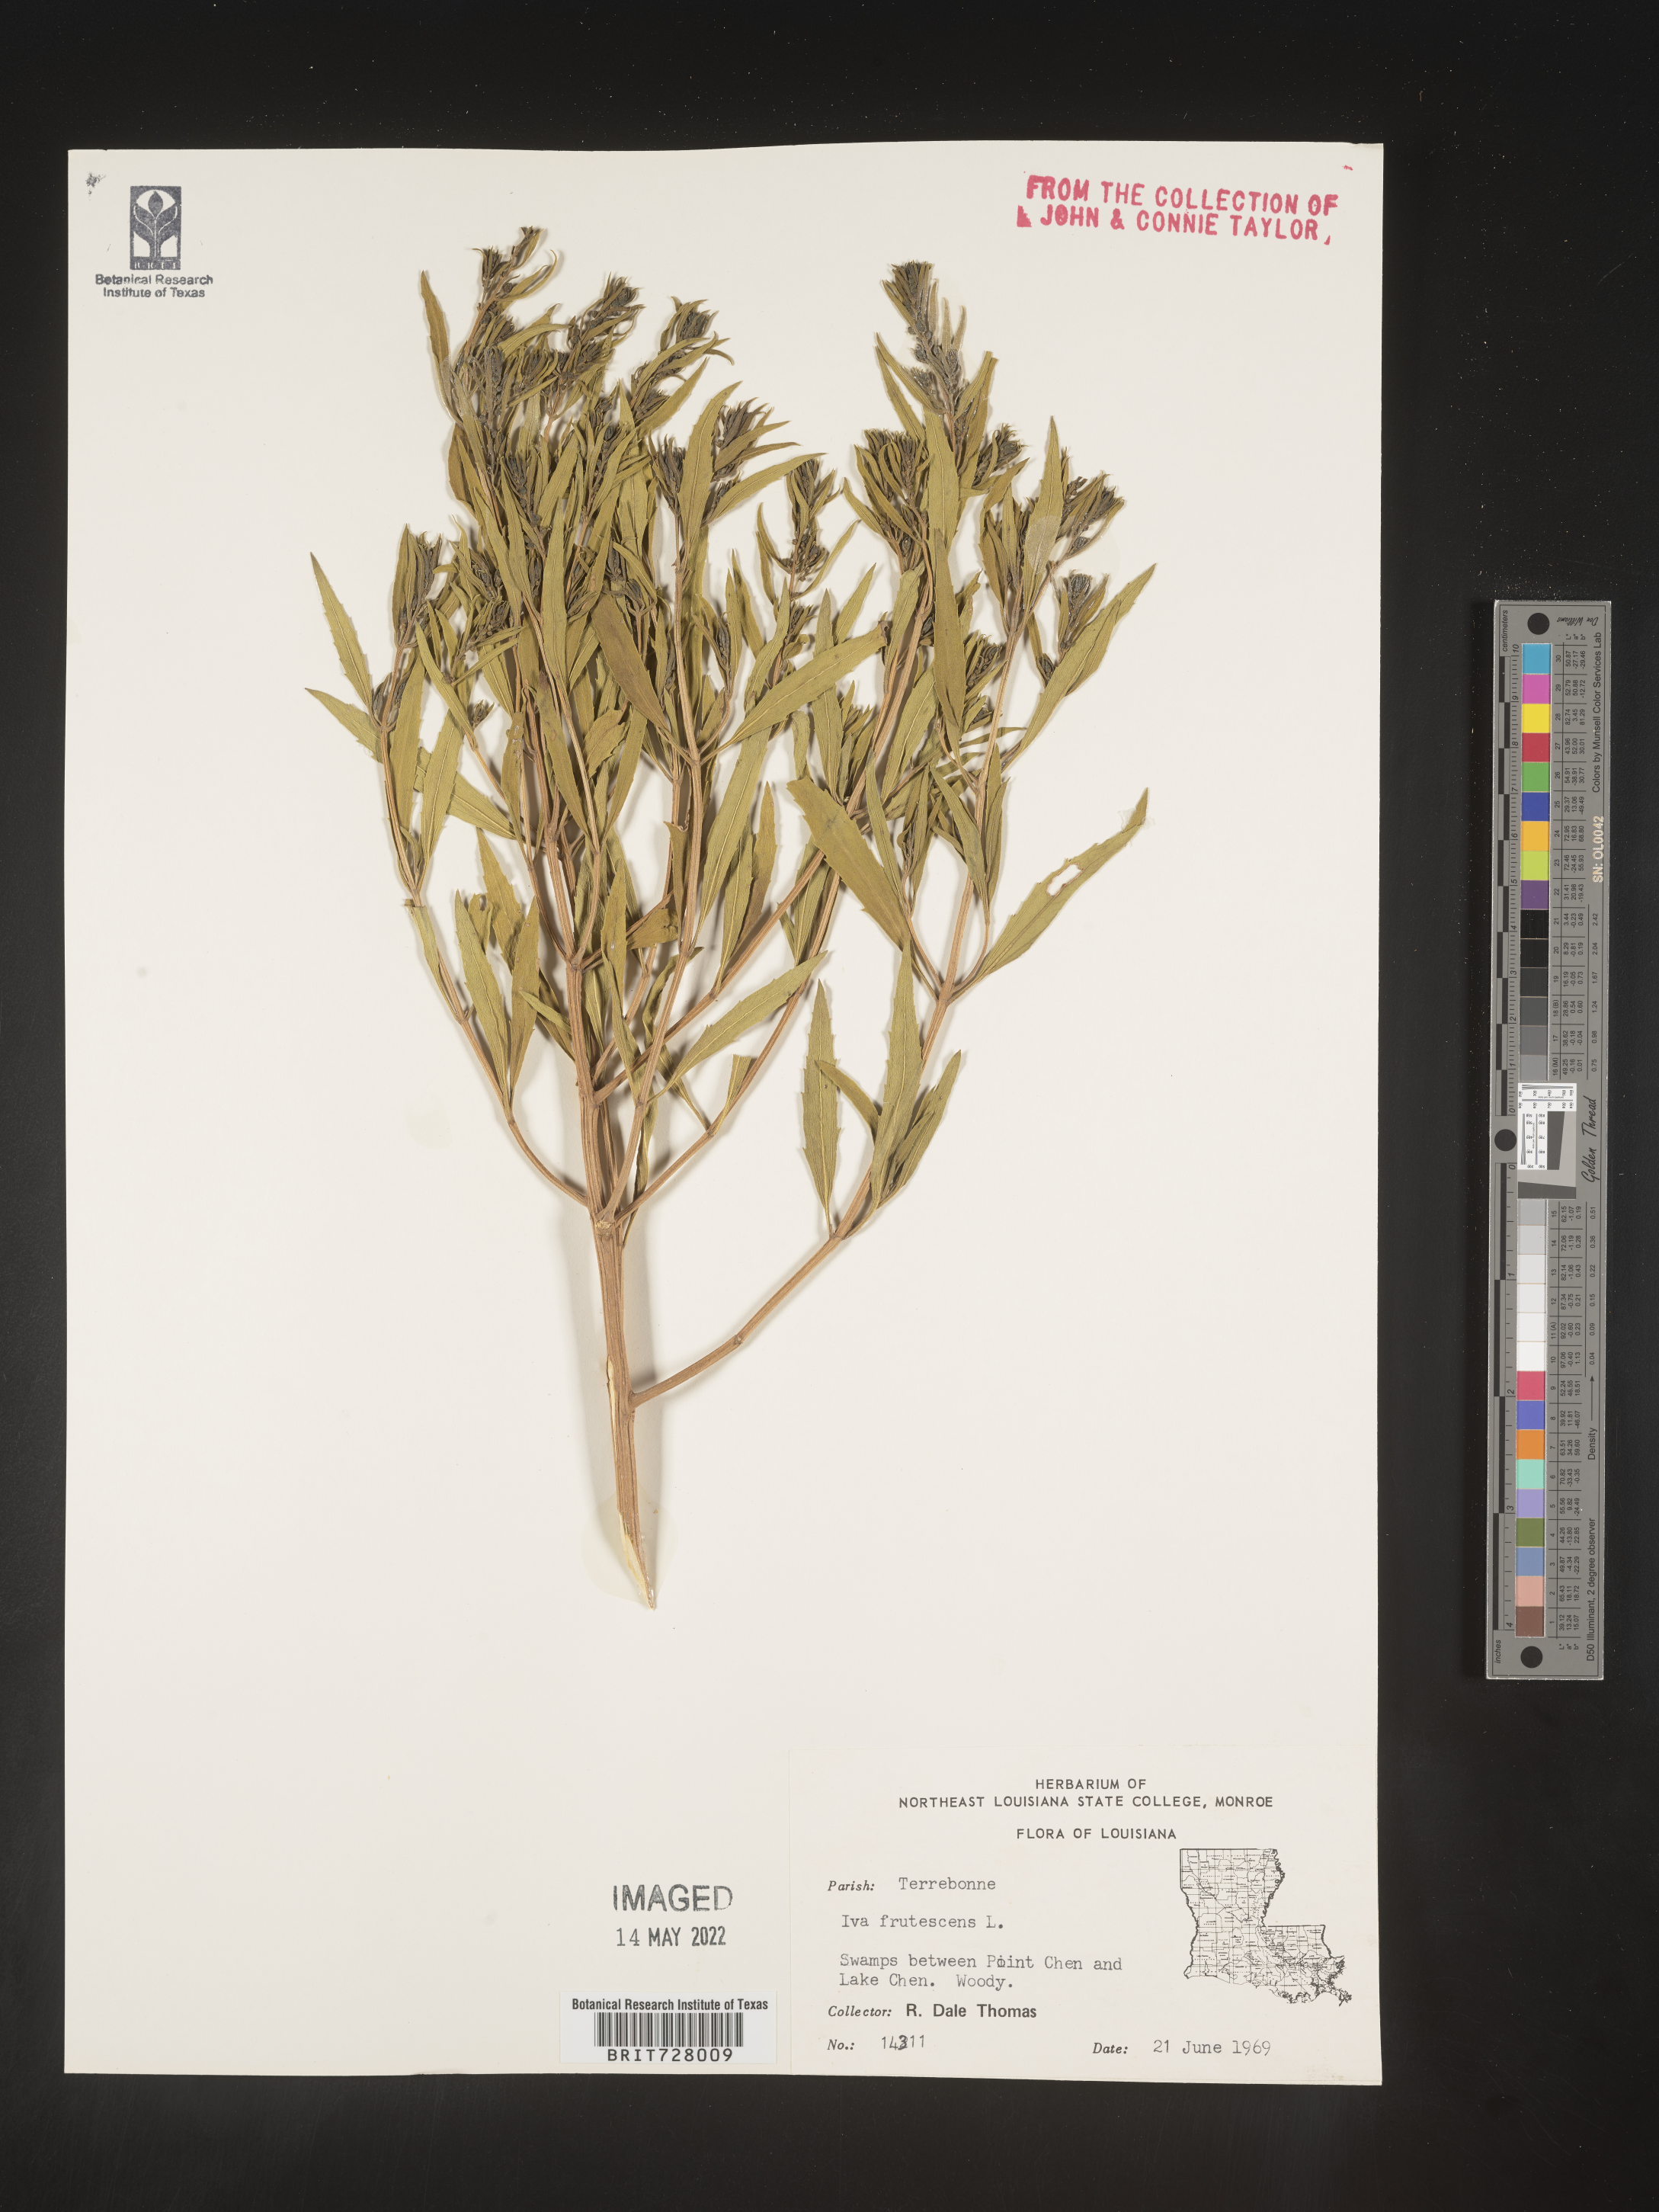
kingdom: Plantae
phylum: Tracheophyta
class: Magnoliopsida
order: Asterales
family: Asteraceae
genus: Iva
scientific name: Iva frutescens
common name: Big-leaved marsh-elder
